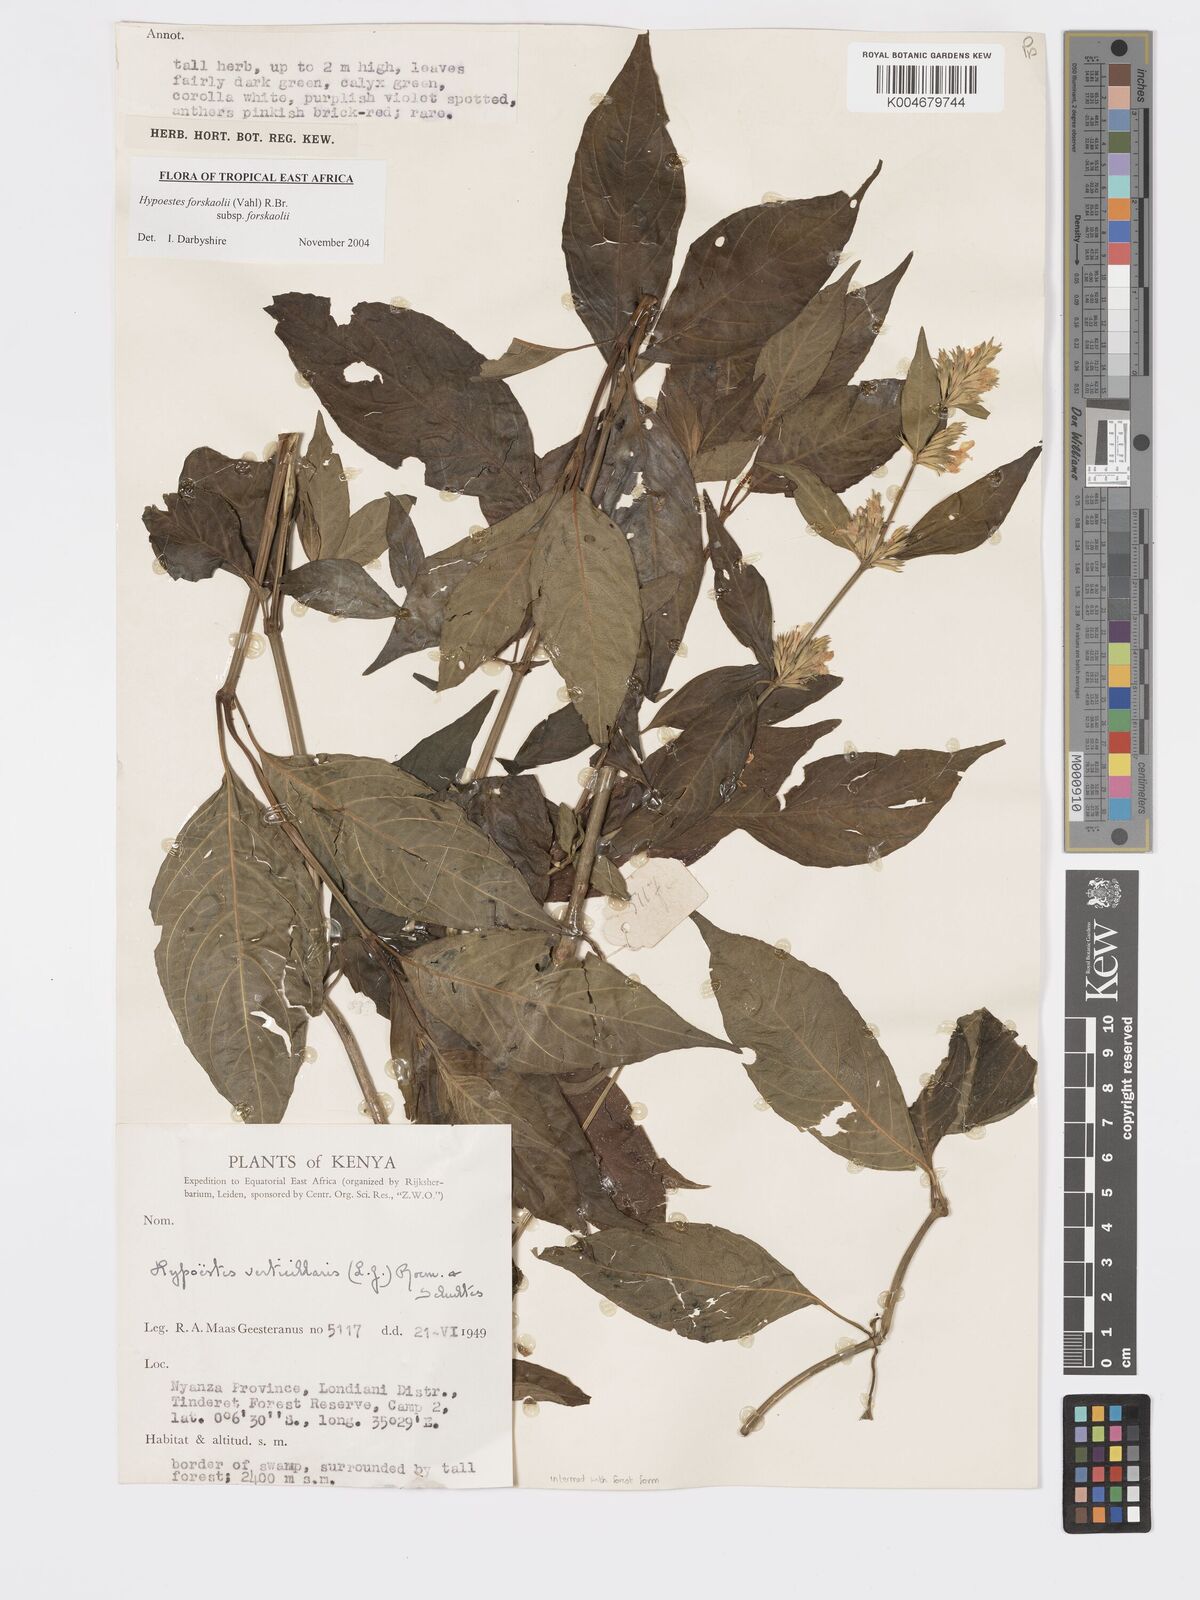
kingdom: Plantae
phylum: Tracheophyta
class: Magnoliopsida
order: Lamiales
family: Acanthaceae
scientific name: Acanthaceae
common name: Acanthaceae
